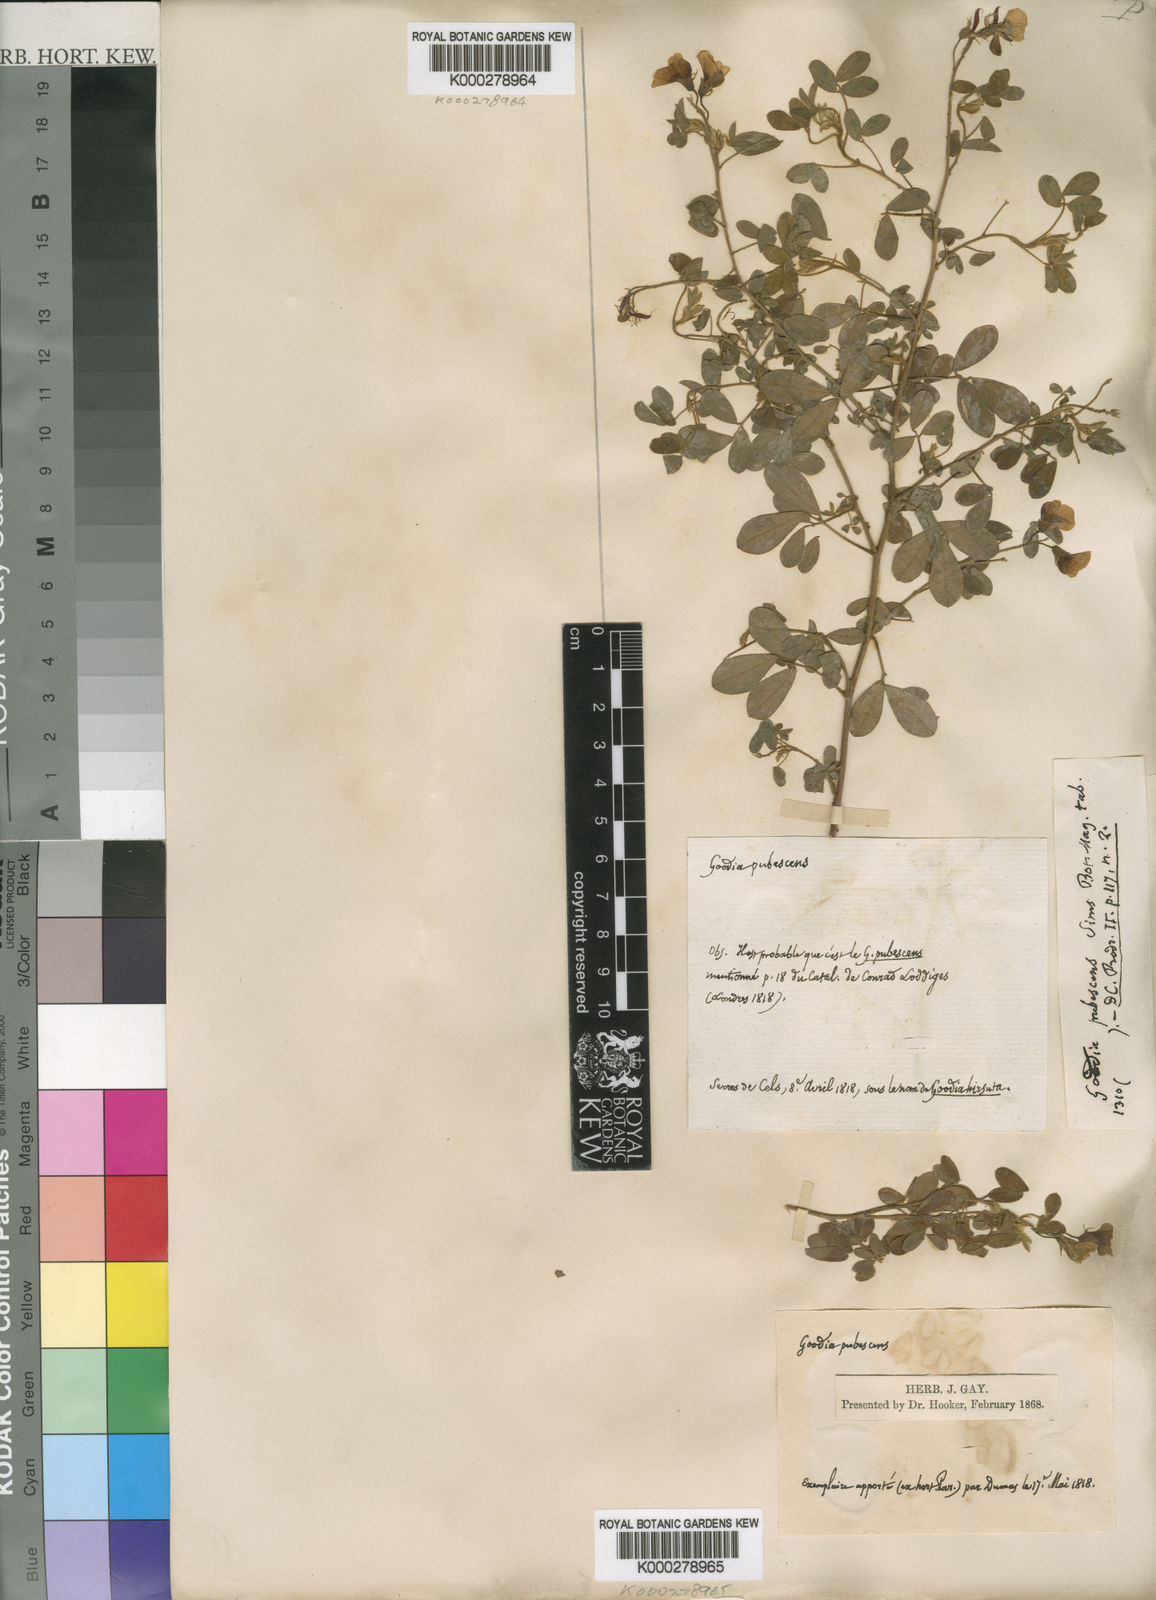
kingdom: Plantae
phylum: Tracheophyta
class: Magnoliopsida
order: Fabales
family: Fabaceae
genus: Goodia
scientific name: Goodia pubescens
